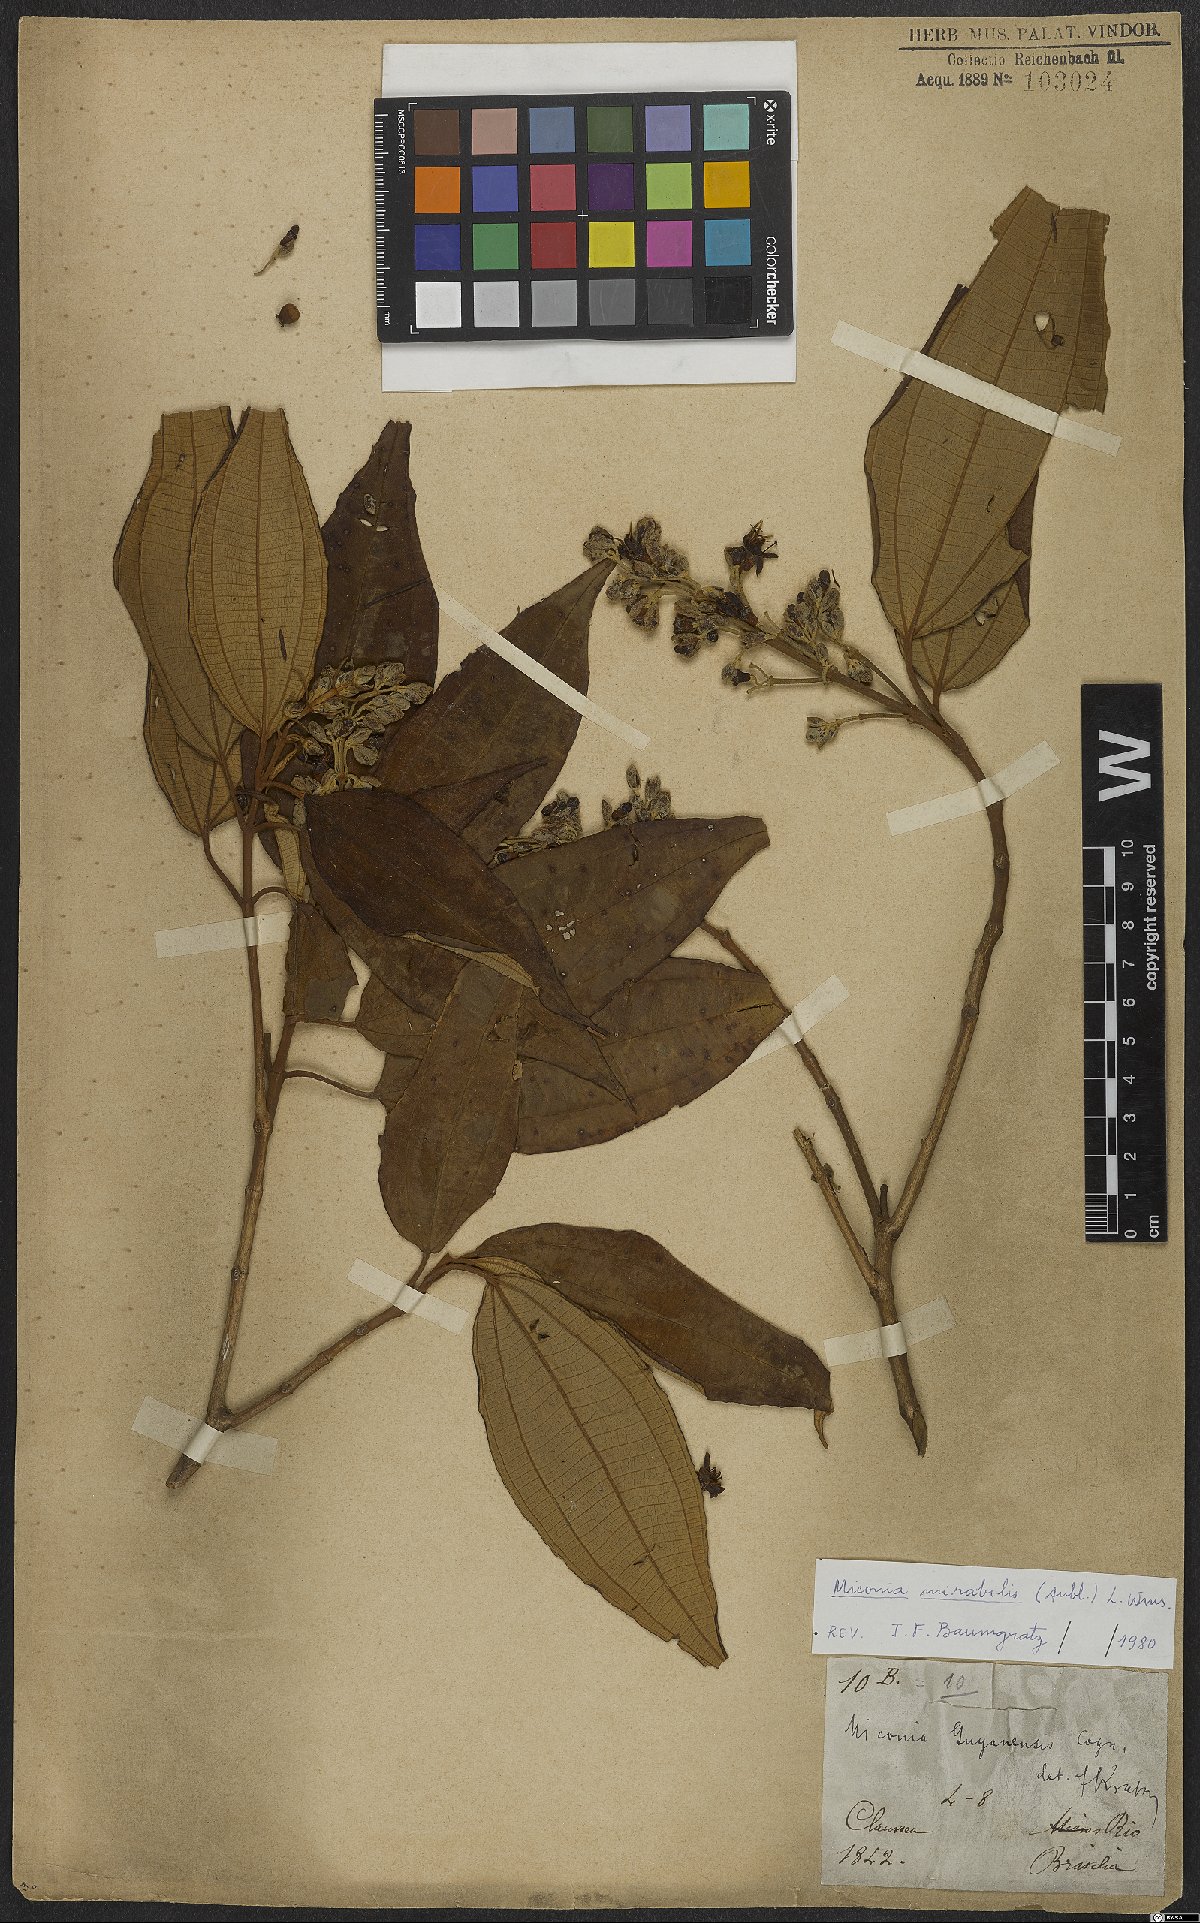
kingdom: Plantae
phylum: Tracheophyta
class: Magnoliopsida
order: Myrtales
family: Melastomataceae
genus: Miconia
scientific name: Miconia mirabilis
